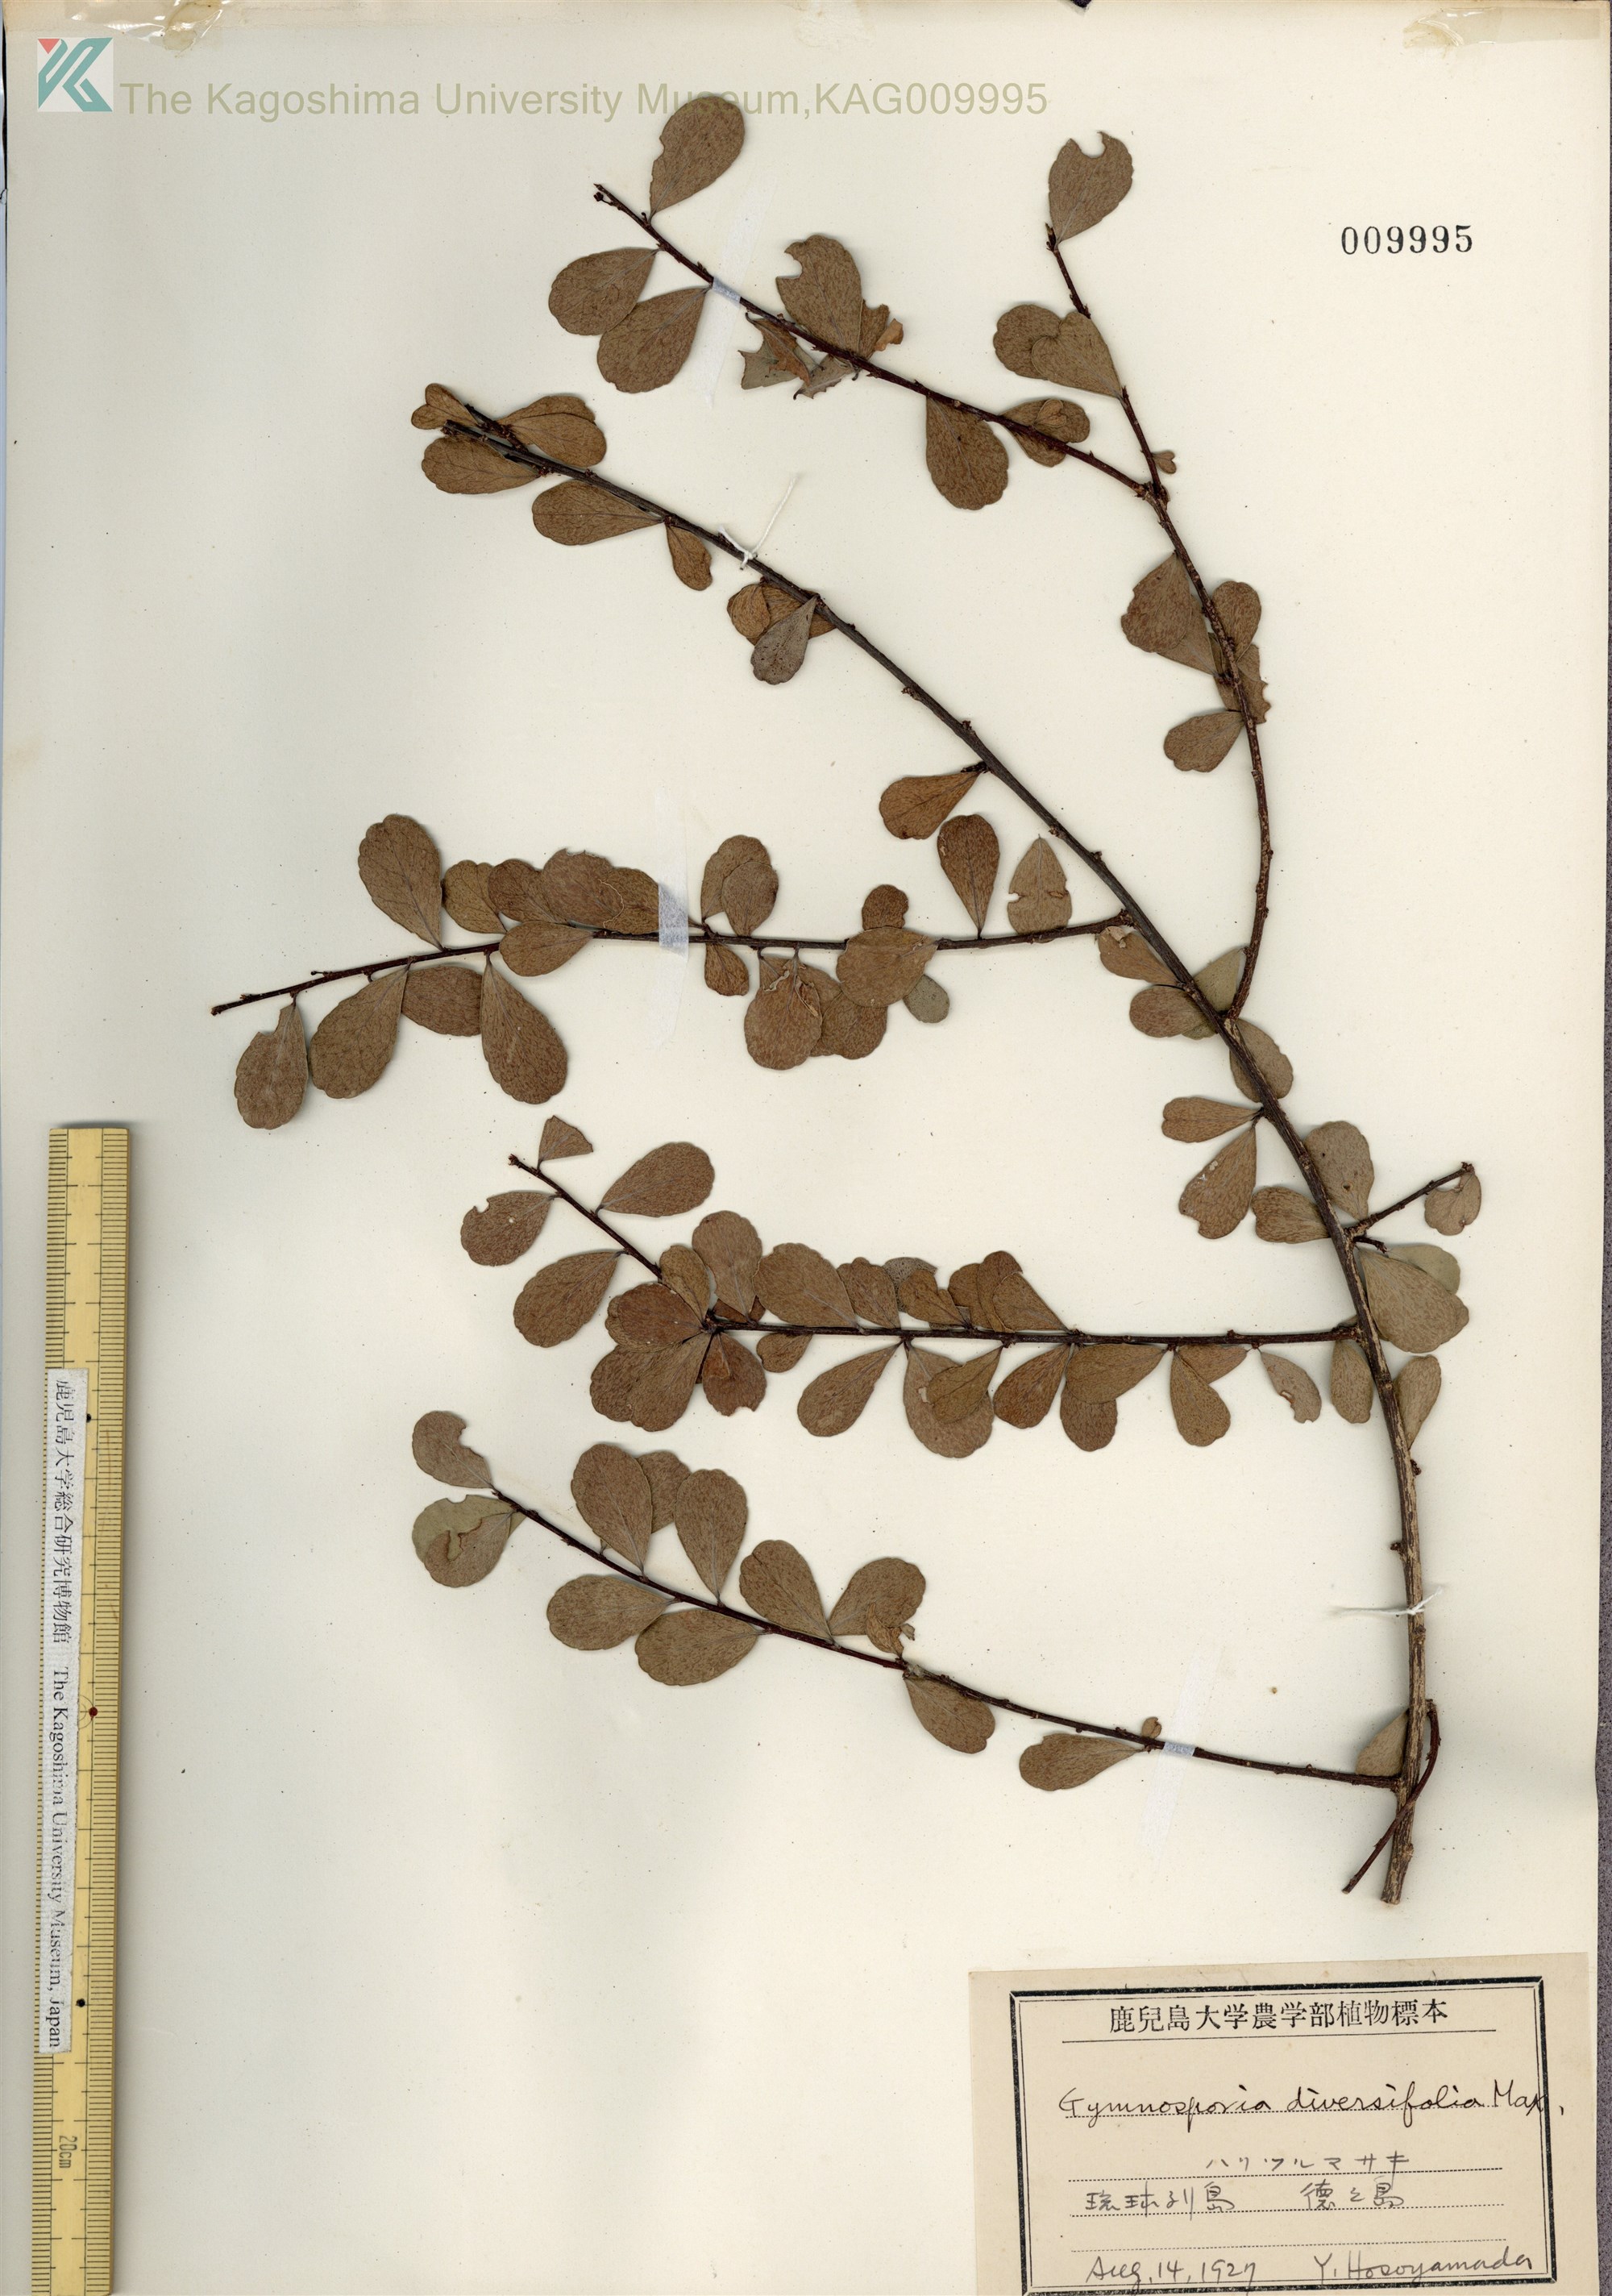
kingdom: Plantae
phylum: Tracheophyta
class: Magnoliopsida
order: Celastrales
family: Celastraceae
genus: Gymnosporia
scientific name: Gymnosporia diversifolia
